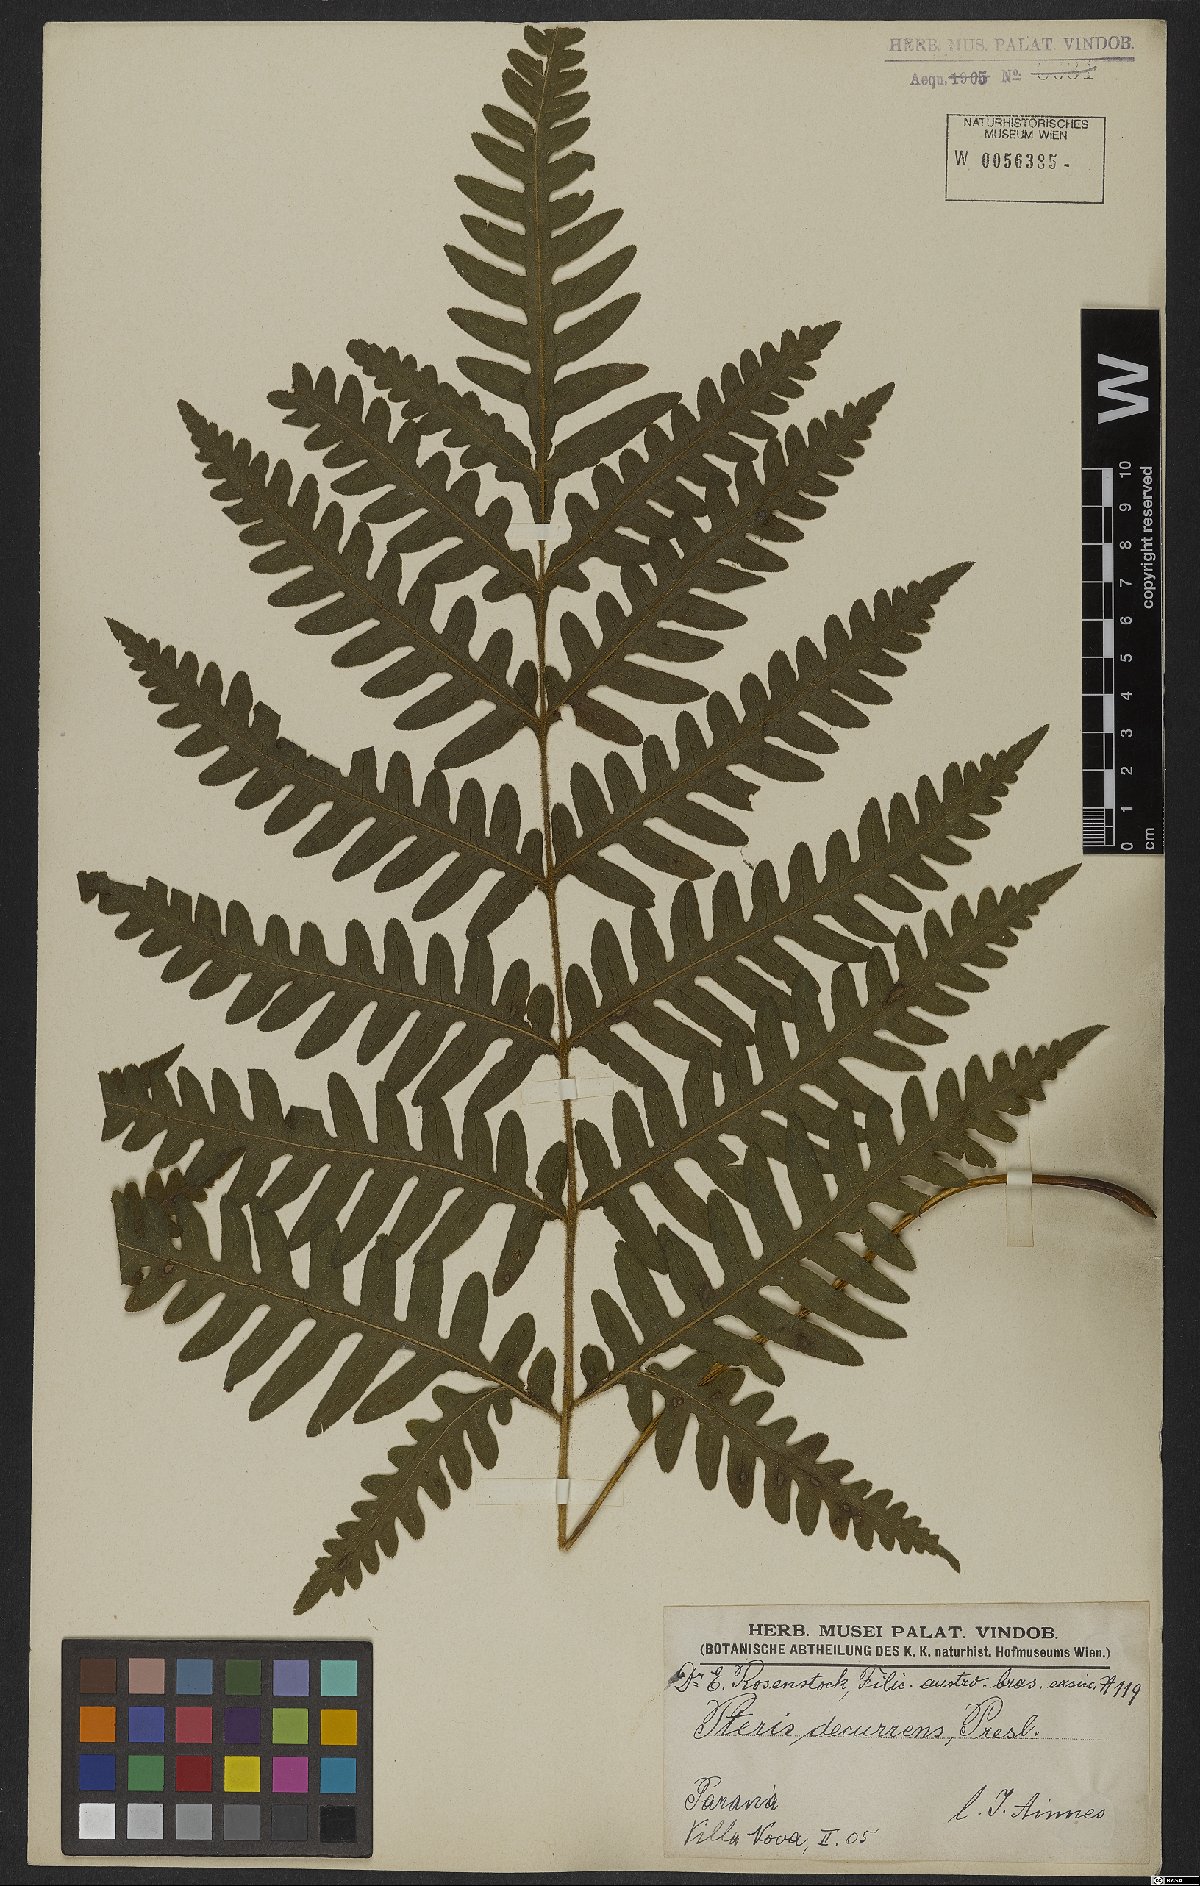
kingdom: Plantae
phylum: Tracheophyta
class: Polypodiopsida
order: Polypodiales
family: Pteridaceae
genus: Pteris
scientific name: Pteris decurrens
